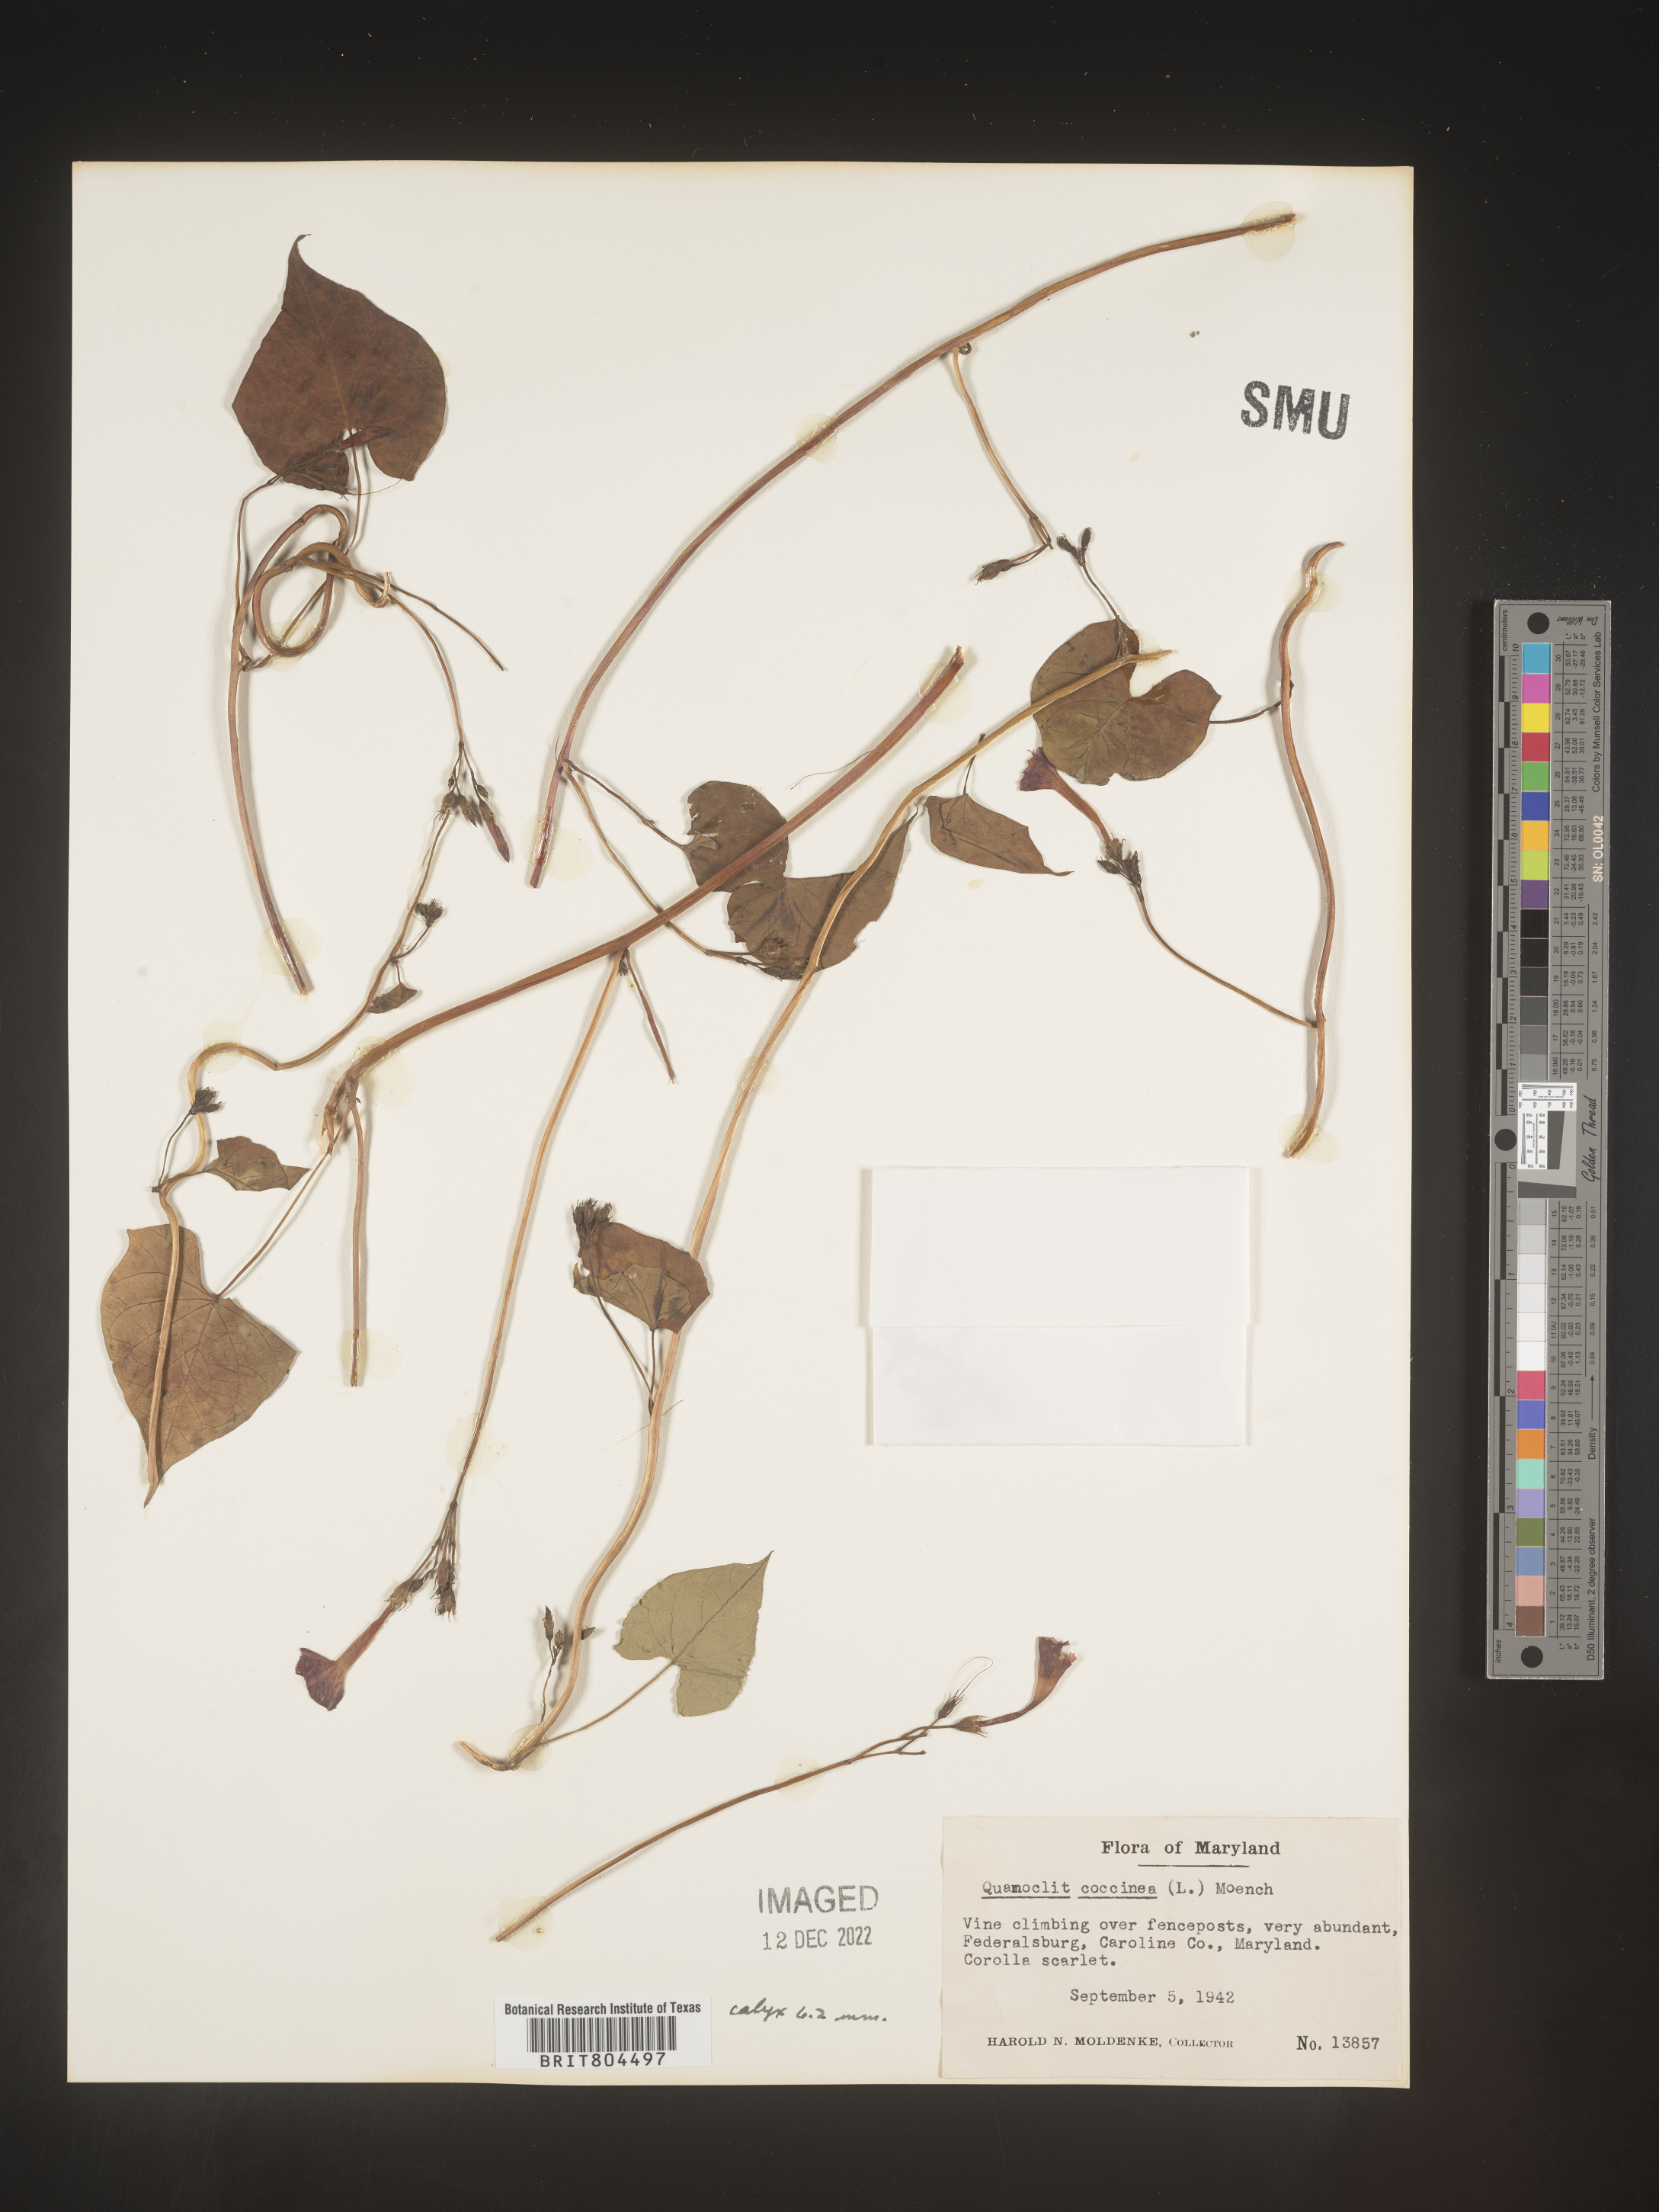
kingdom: Plantae
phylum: Tracheophyta
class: Magnoliopsida
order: Solanales
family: Convolvulaceae
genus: Ipomoea
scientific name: Ipomoea coccinea
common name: Red morning-glory
